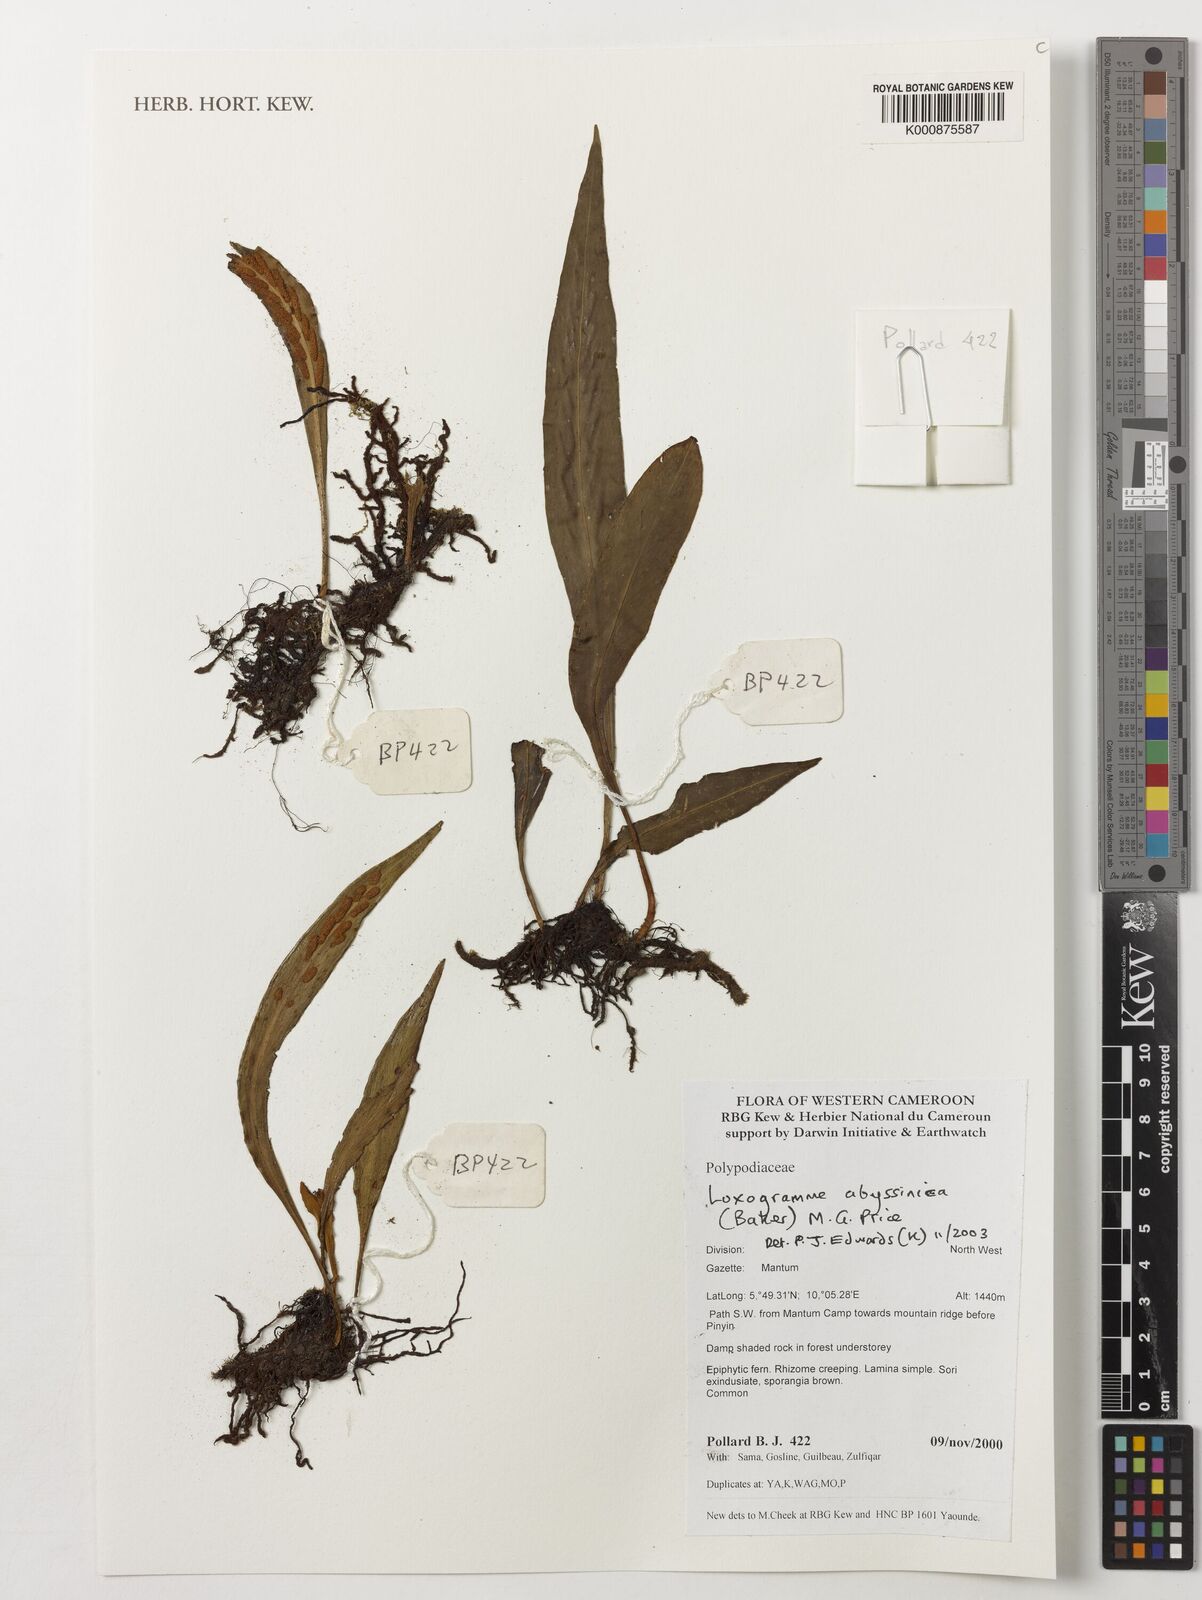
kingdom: Plantae
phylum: Tracheophyta
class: Polypodiopsida
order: Polypodiales
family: Polypodiaceae
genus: Loxogramme
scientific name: Loxogramme abyssinica
